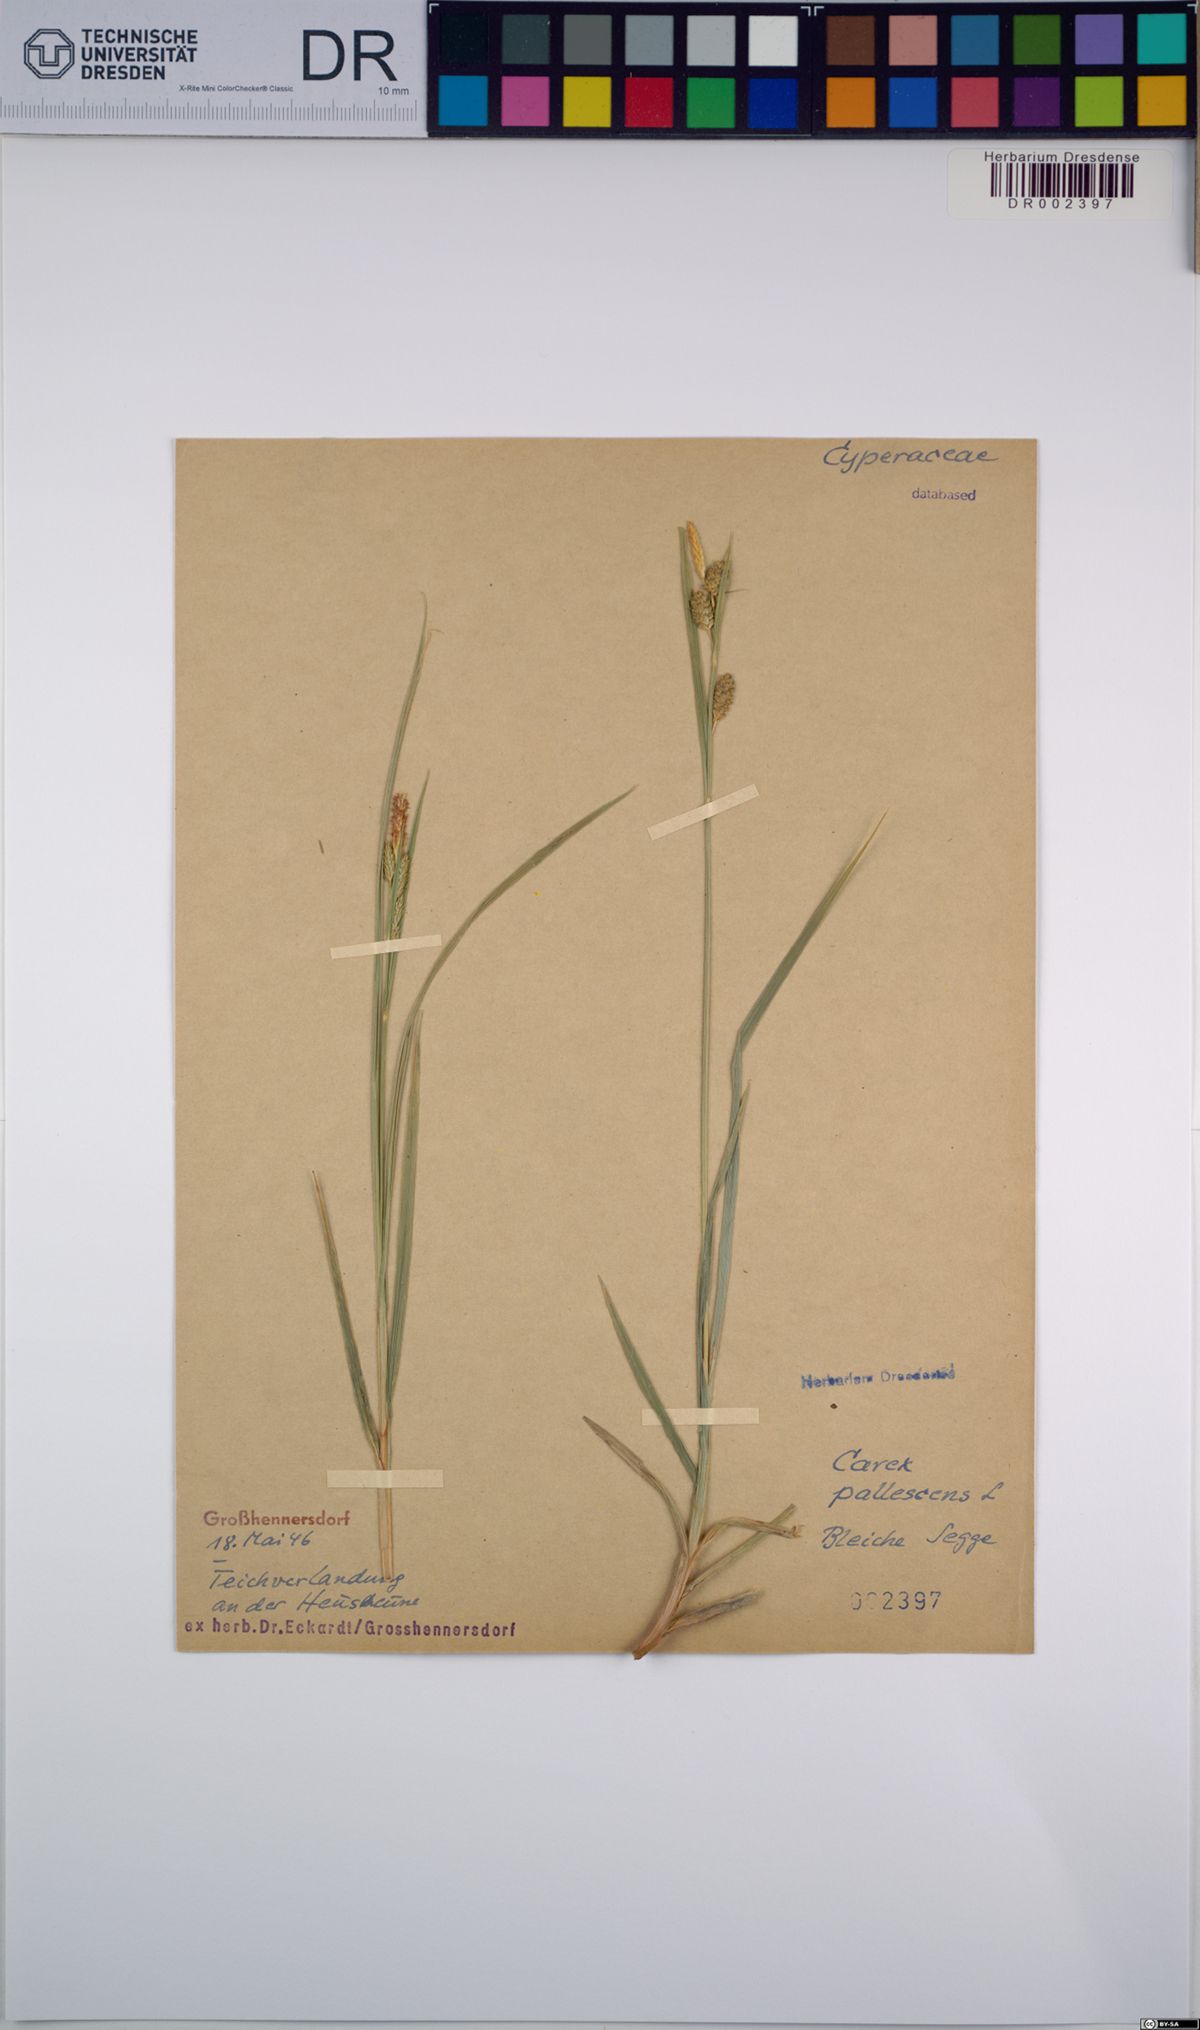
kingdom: Plantae
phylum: Tracheophyta
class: Liliopsida
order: Poales
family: Cyperaceae
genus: Carex
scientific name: Carex pallescens
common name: Pale sedge
